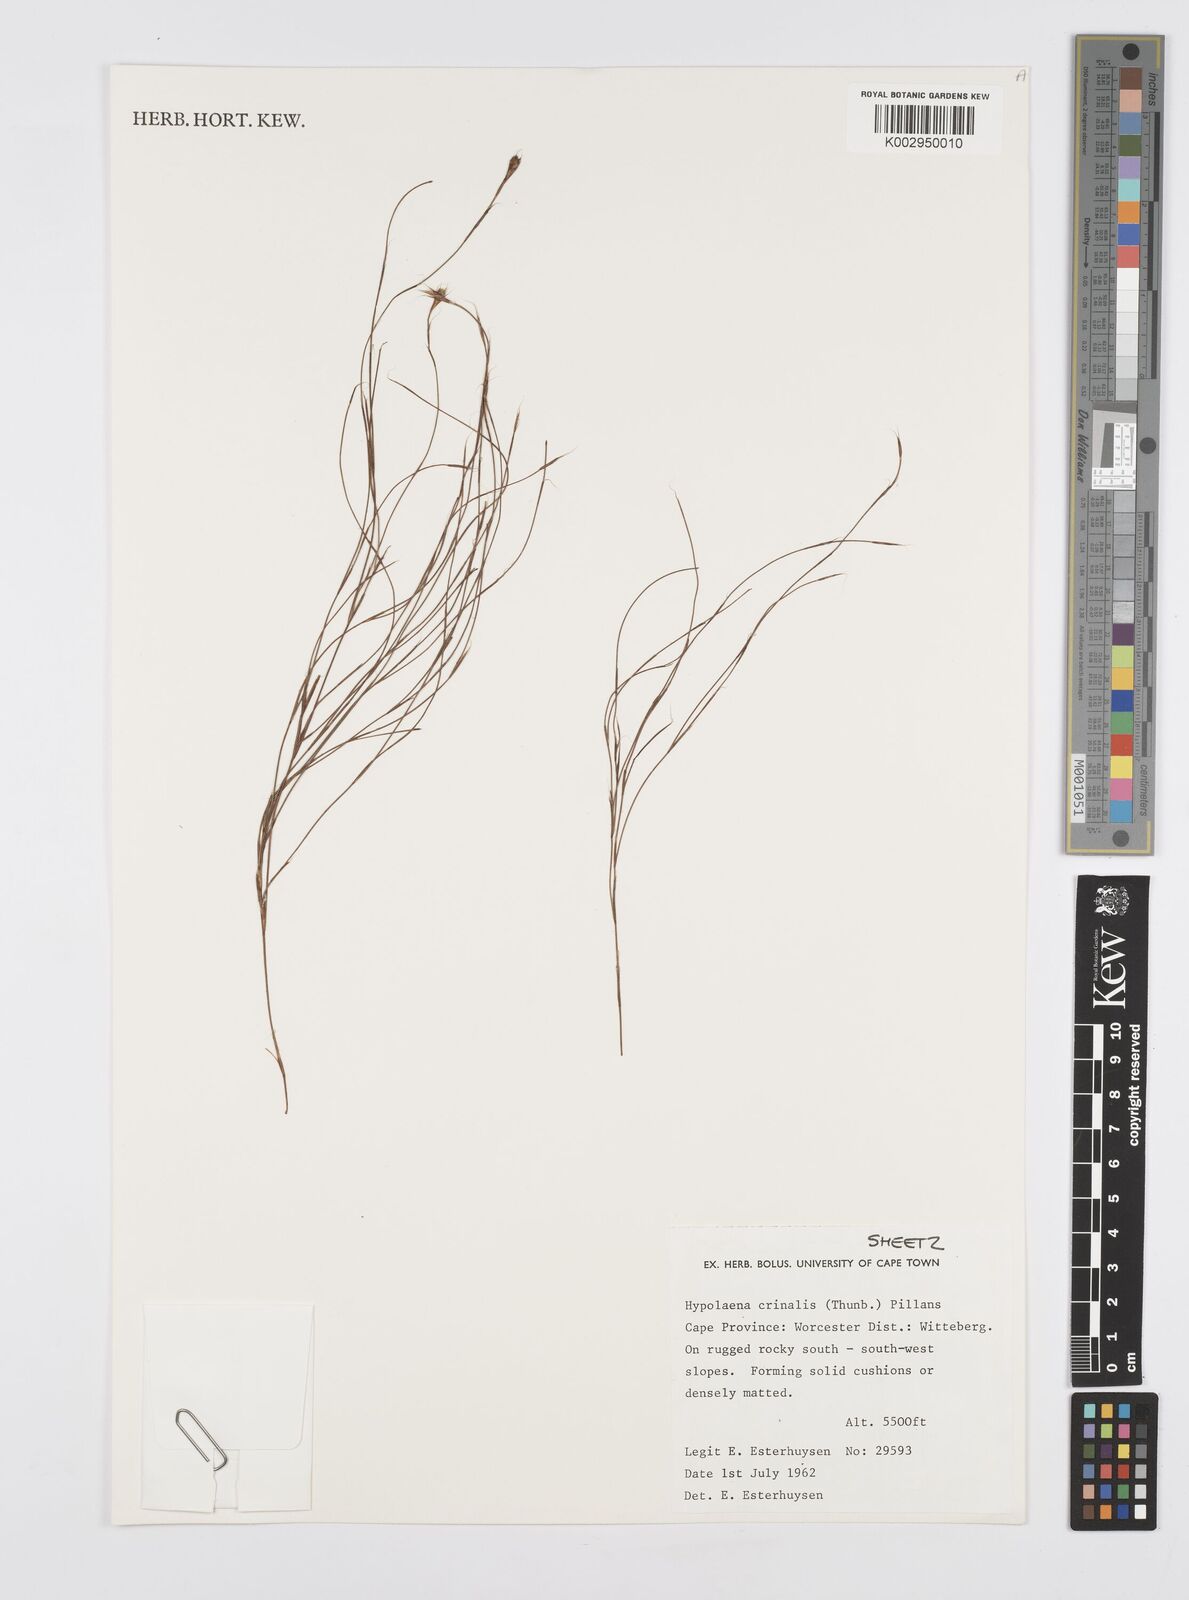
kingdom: Plantae
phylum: Tracheophyta
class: Liliopsida
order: Poales
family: Restionaceae
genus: Anthochortus
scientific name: Anthochortus crinalis
